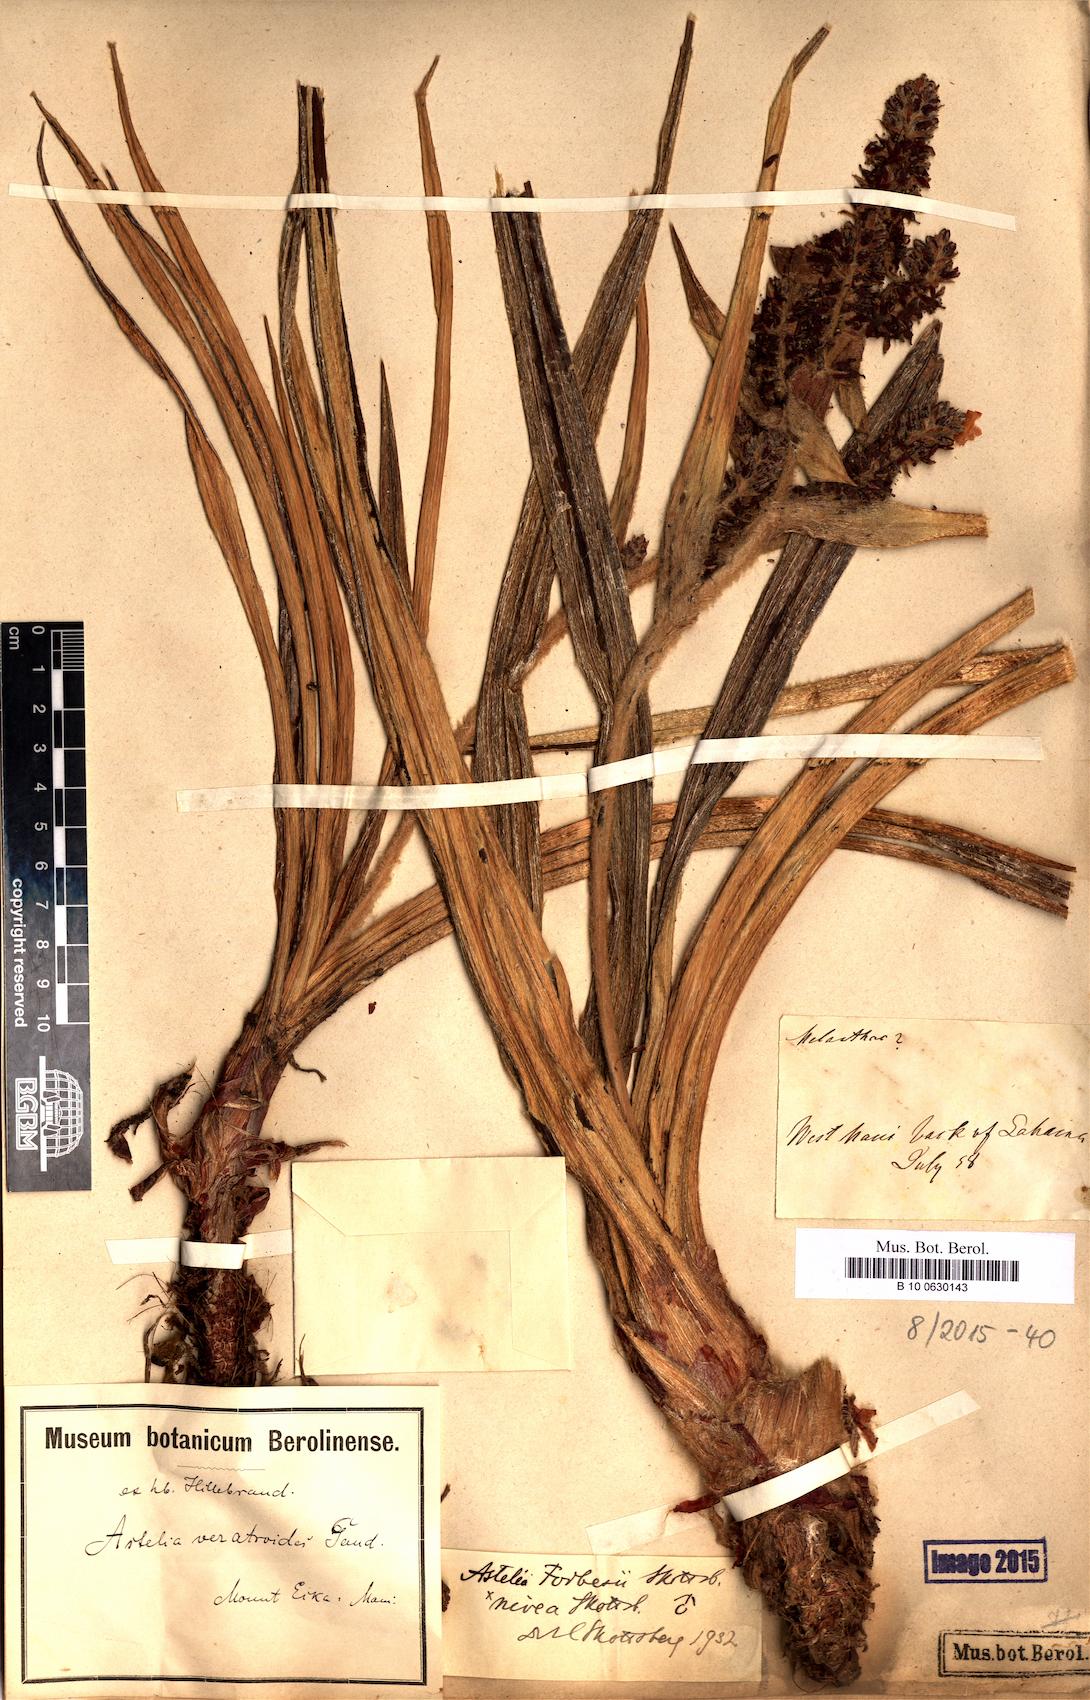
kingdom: Plantae
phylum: Tracheophyta
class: Liliopsida
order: Asparagales
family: Asteliaceae
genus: Astelia
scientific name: Astelia menziesiana
